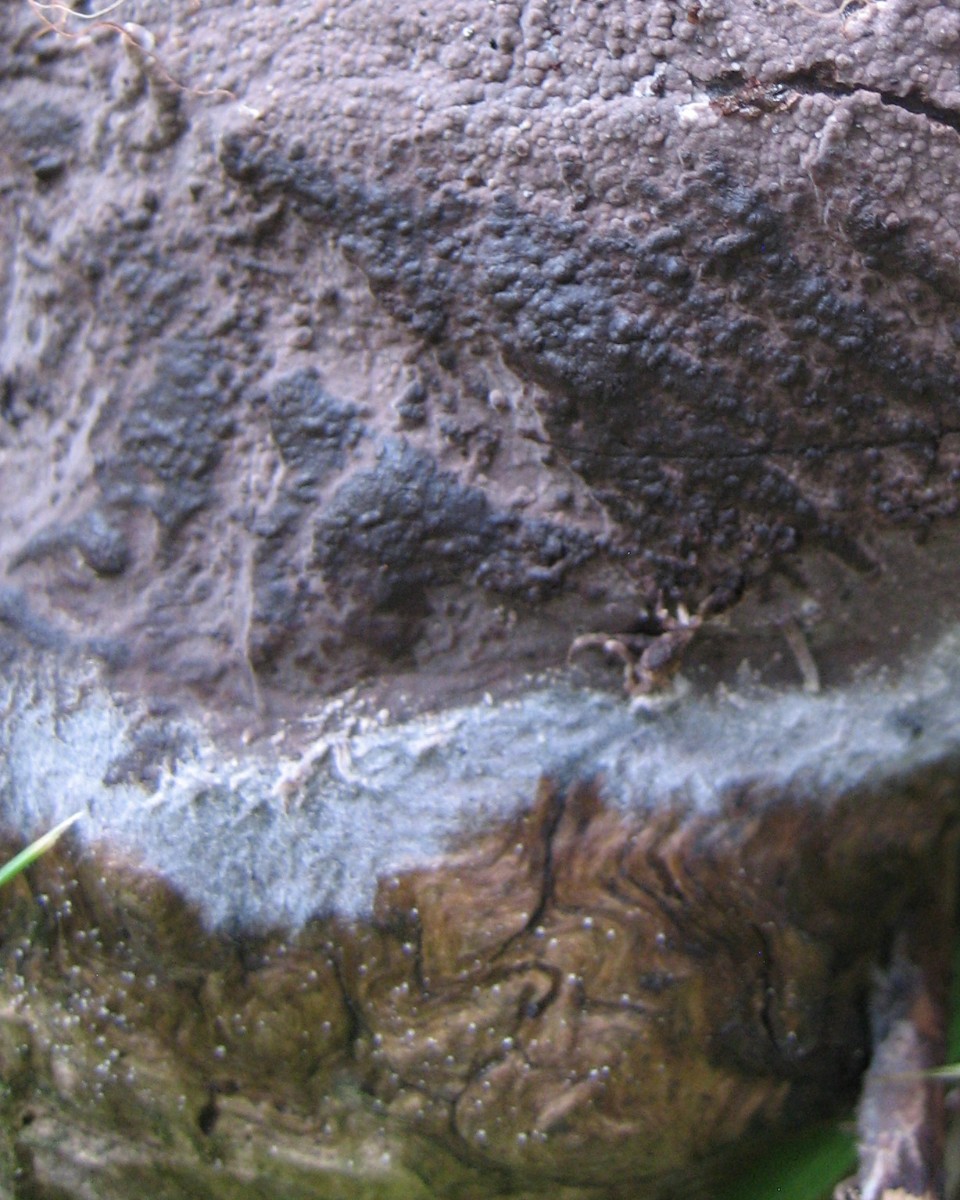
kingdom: Fungi
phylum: Basidiomycota
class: Agaricomycetes
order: Corticiales
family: Corticiaceae
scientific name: Corticiaceae
